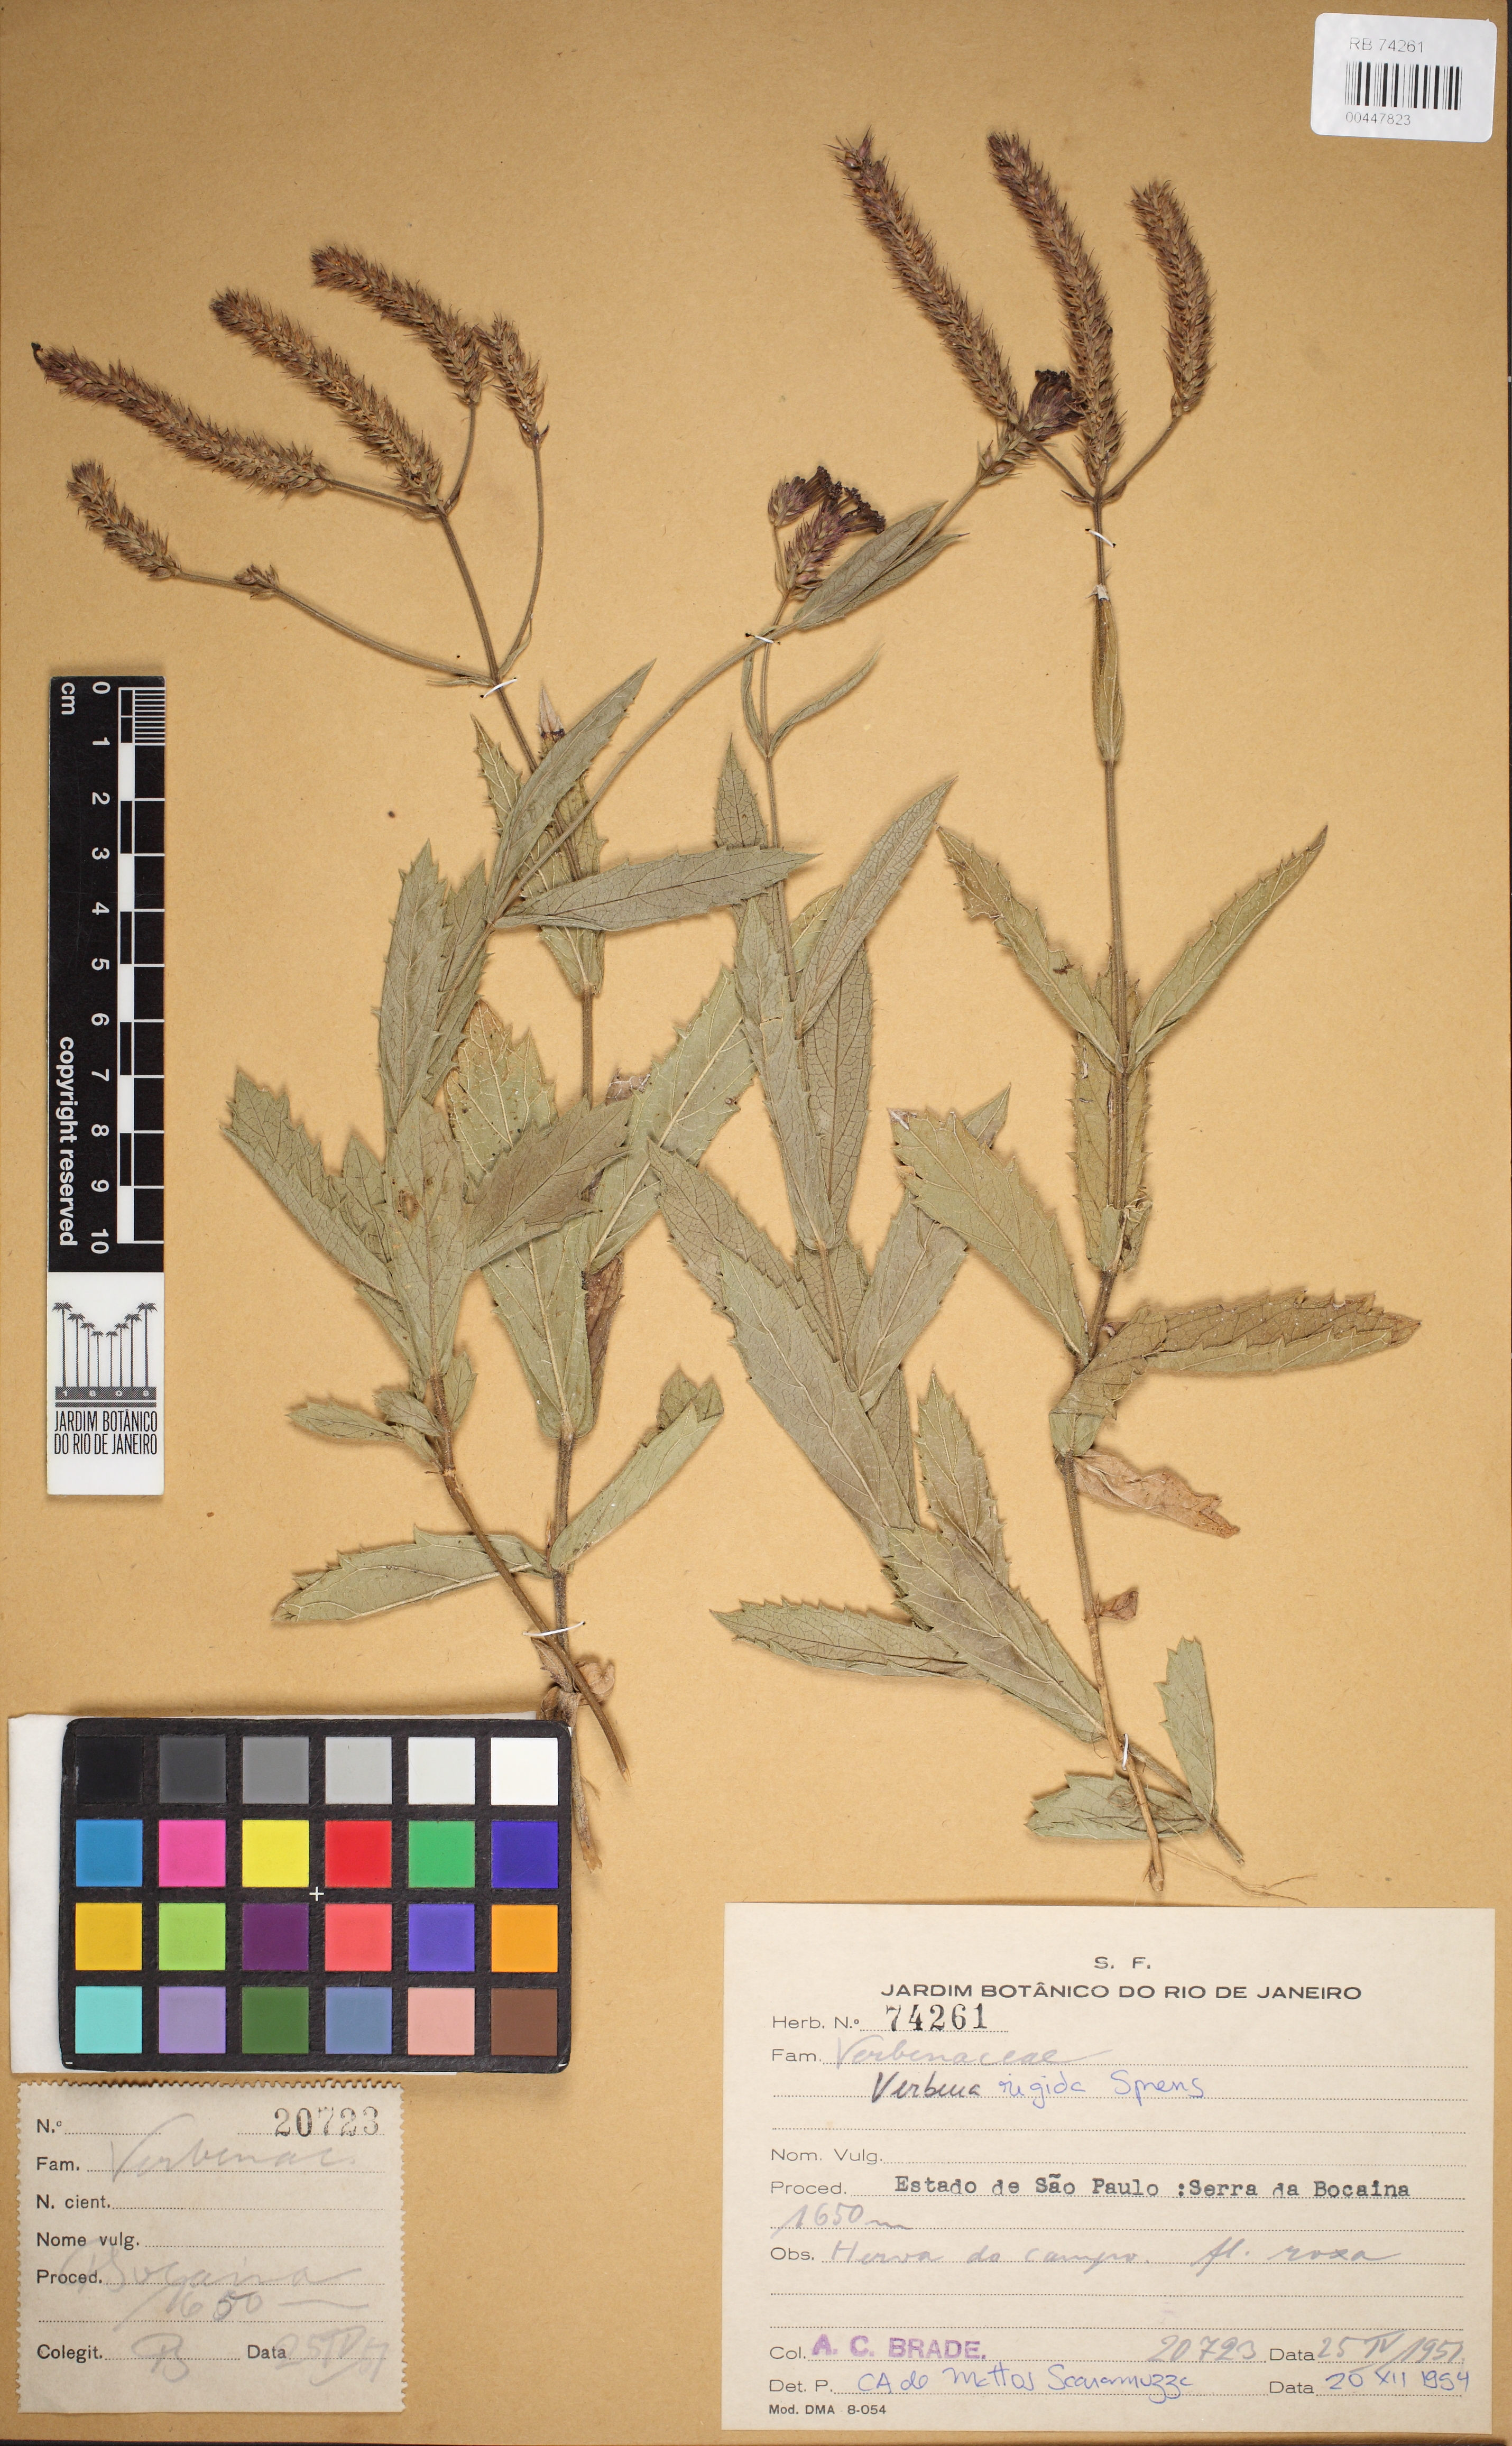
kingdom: Plantae
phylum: Tracheophyta
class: Magnoliopsida
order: Lamiales
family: Verbenaceae
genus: Verbena
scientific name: Verbena rigida
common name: Slender vervain
